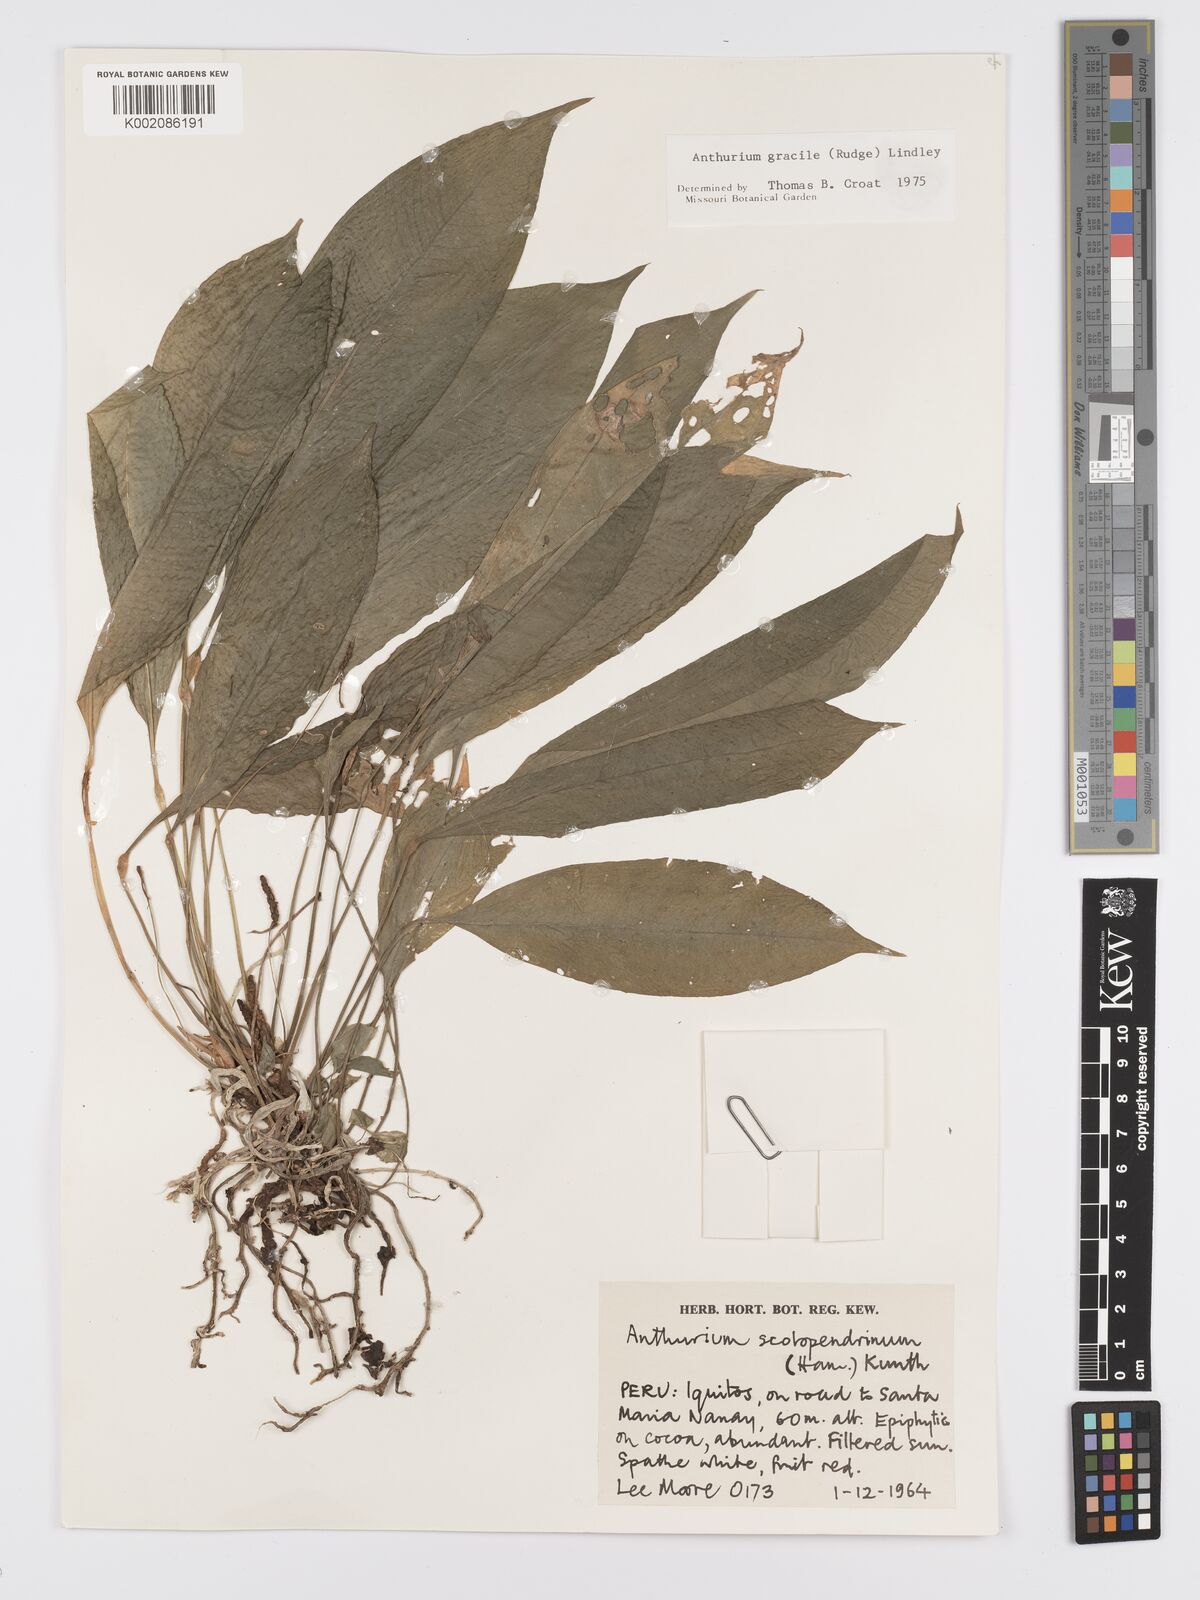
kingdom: Plantae
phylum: Tracheophyta
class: Liliopsida
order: Alismatales
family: Araceae
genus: Anthurium
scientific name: Anthurium gracile
